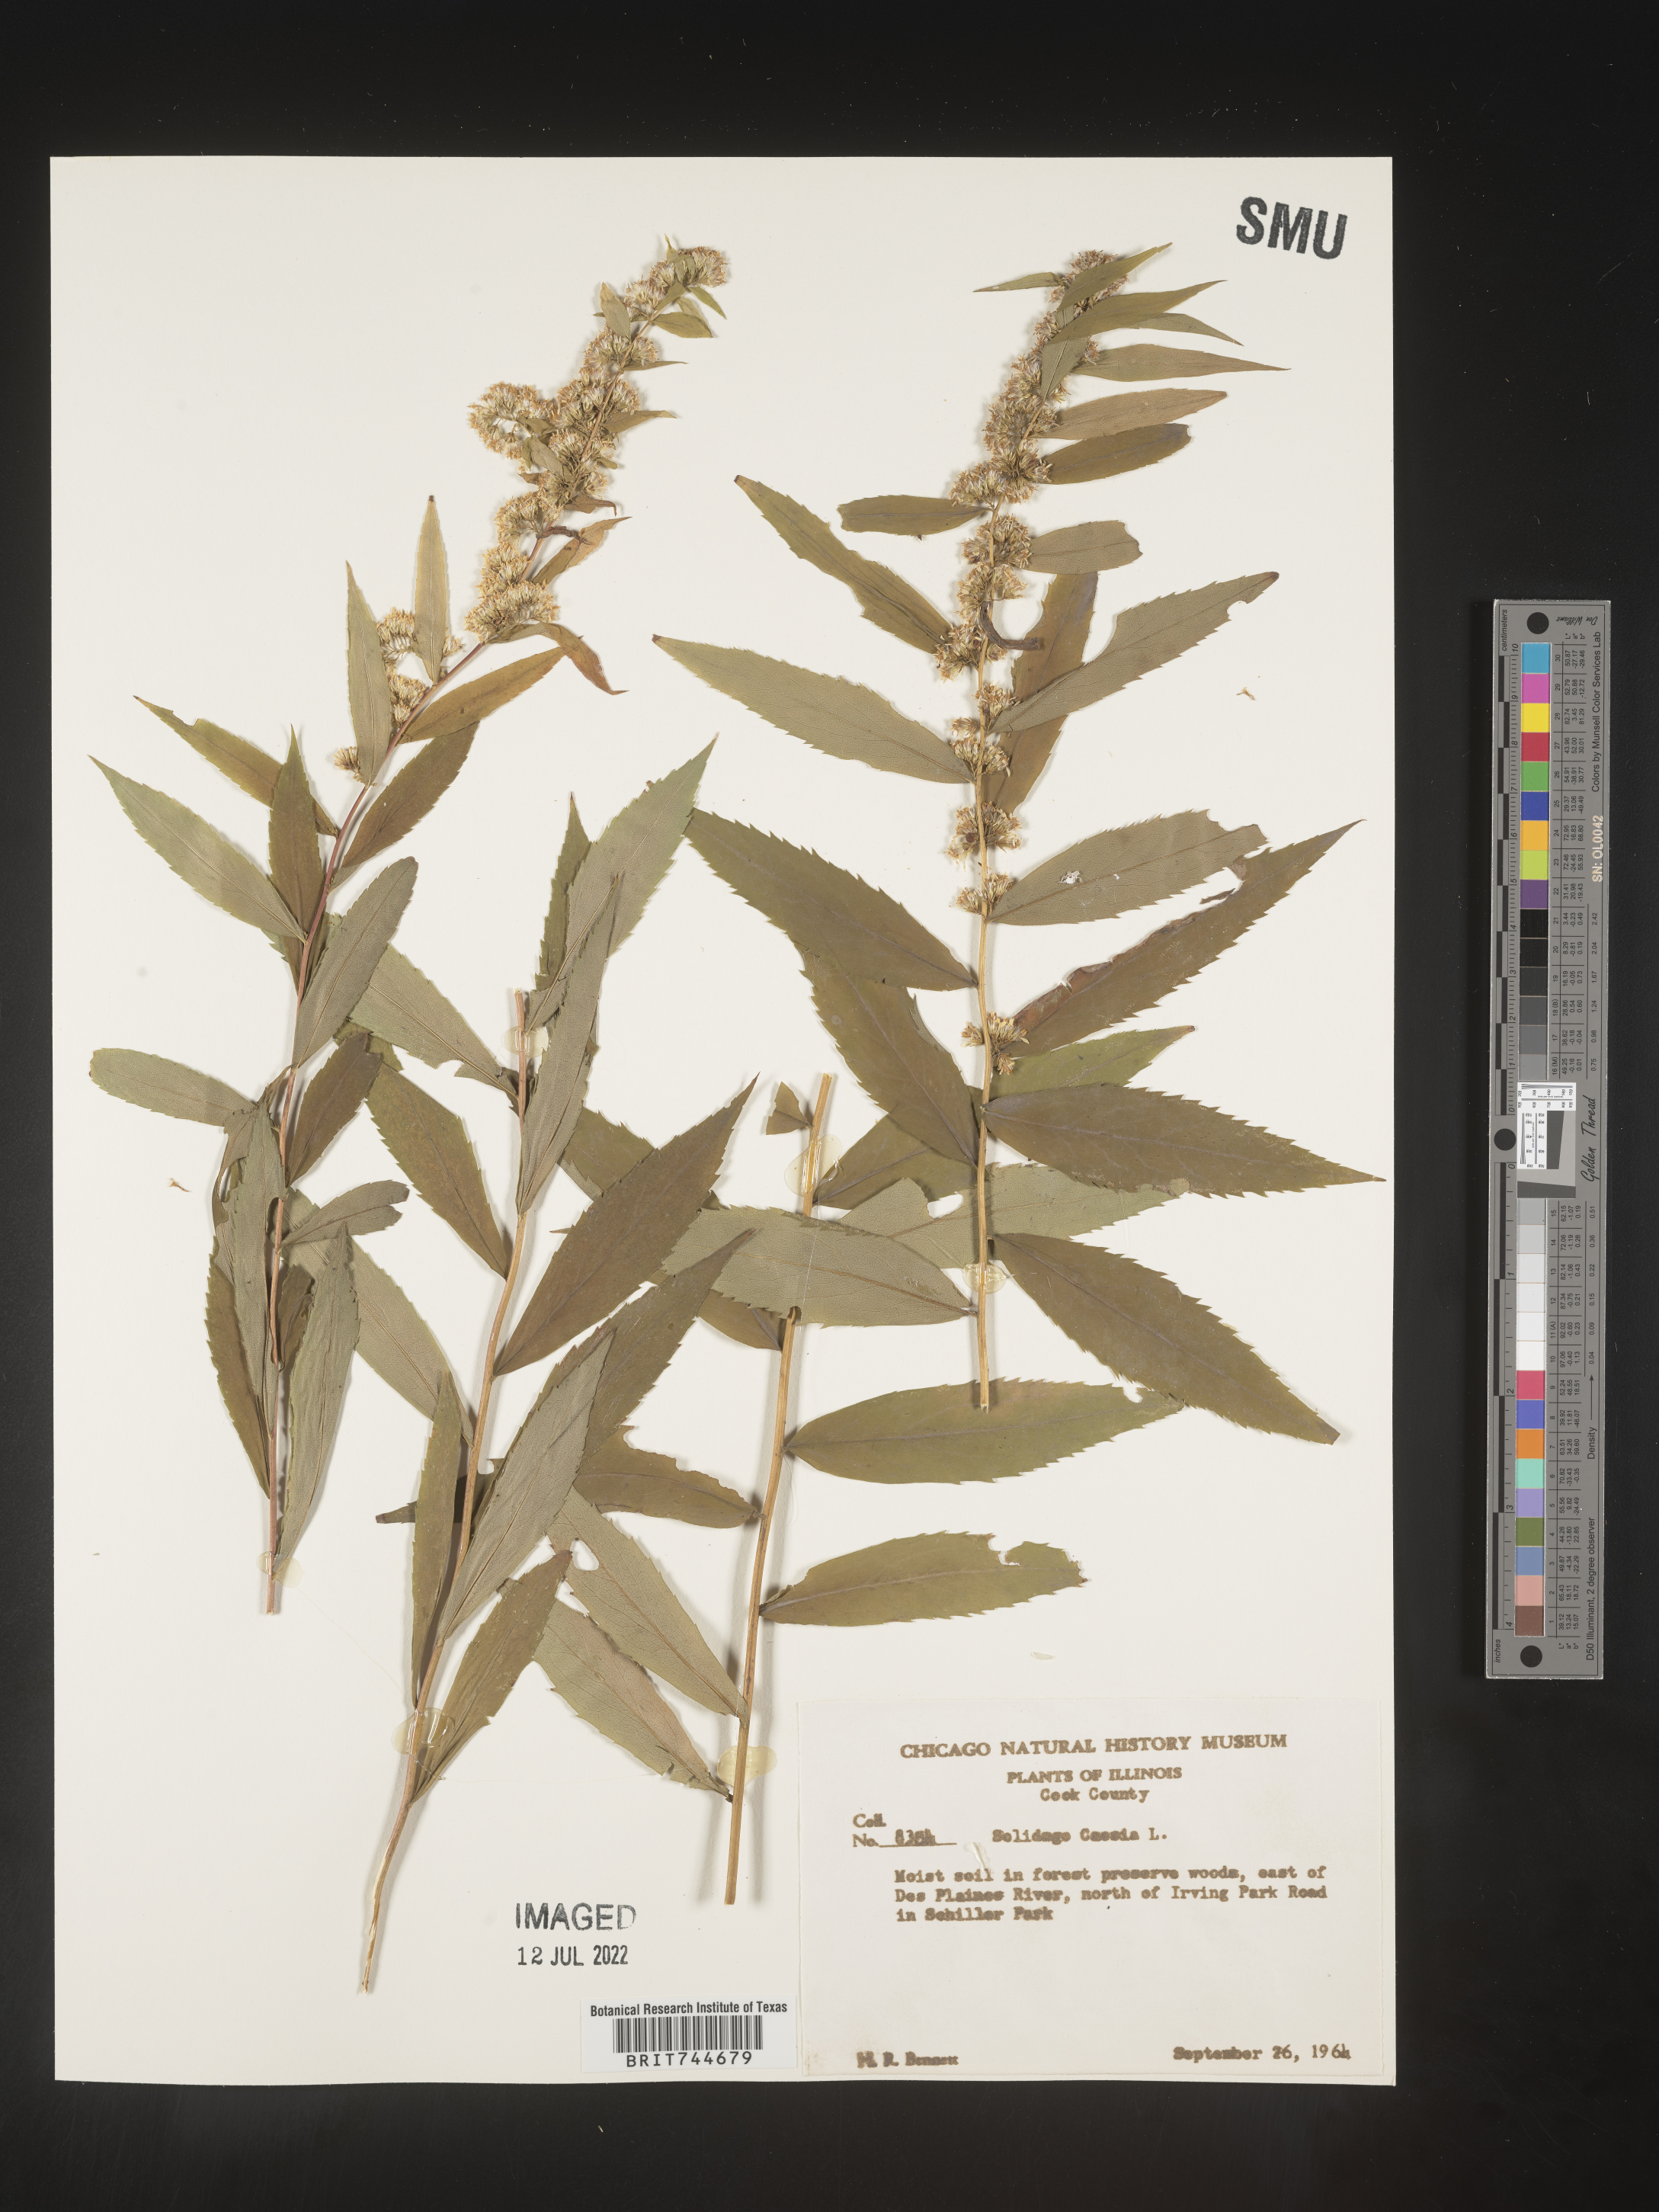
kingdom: Plantae
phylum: Tracheophyta
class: Magnoliopsida
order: Asterales
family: Asteraceae
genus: Solidago
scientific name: Solidago caesia
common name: Woodland goldenrod
